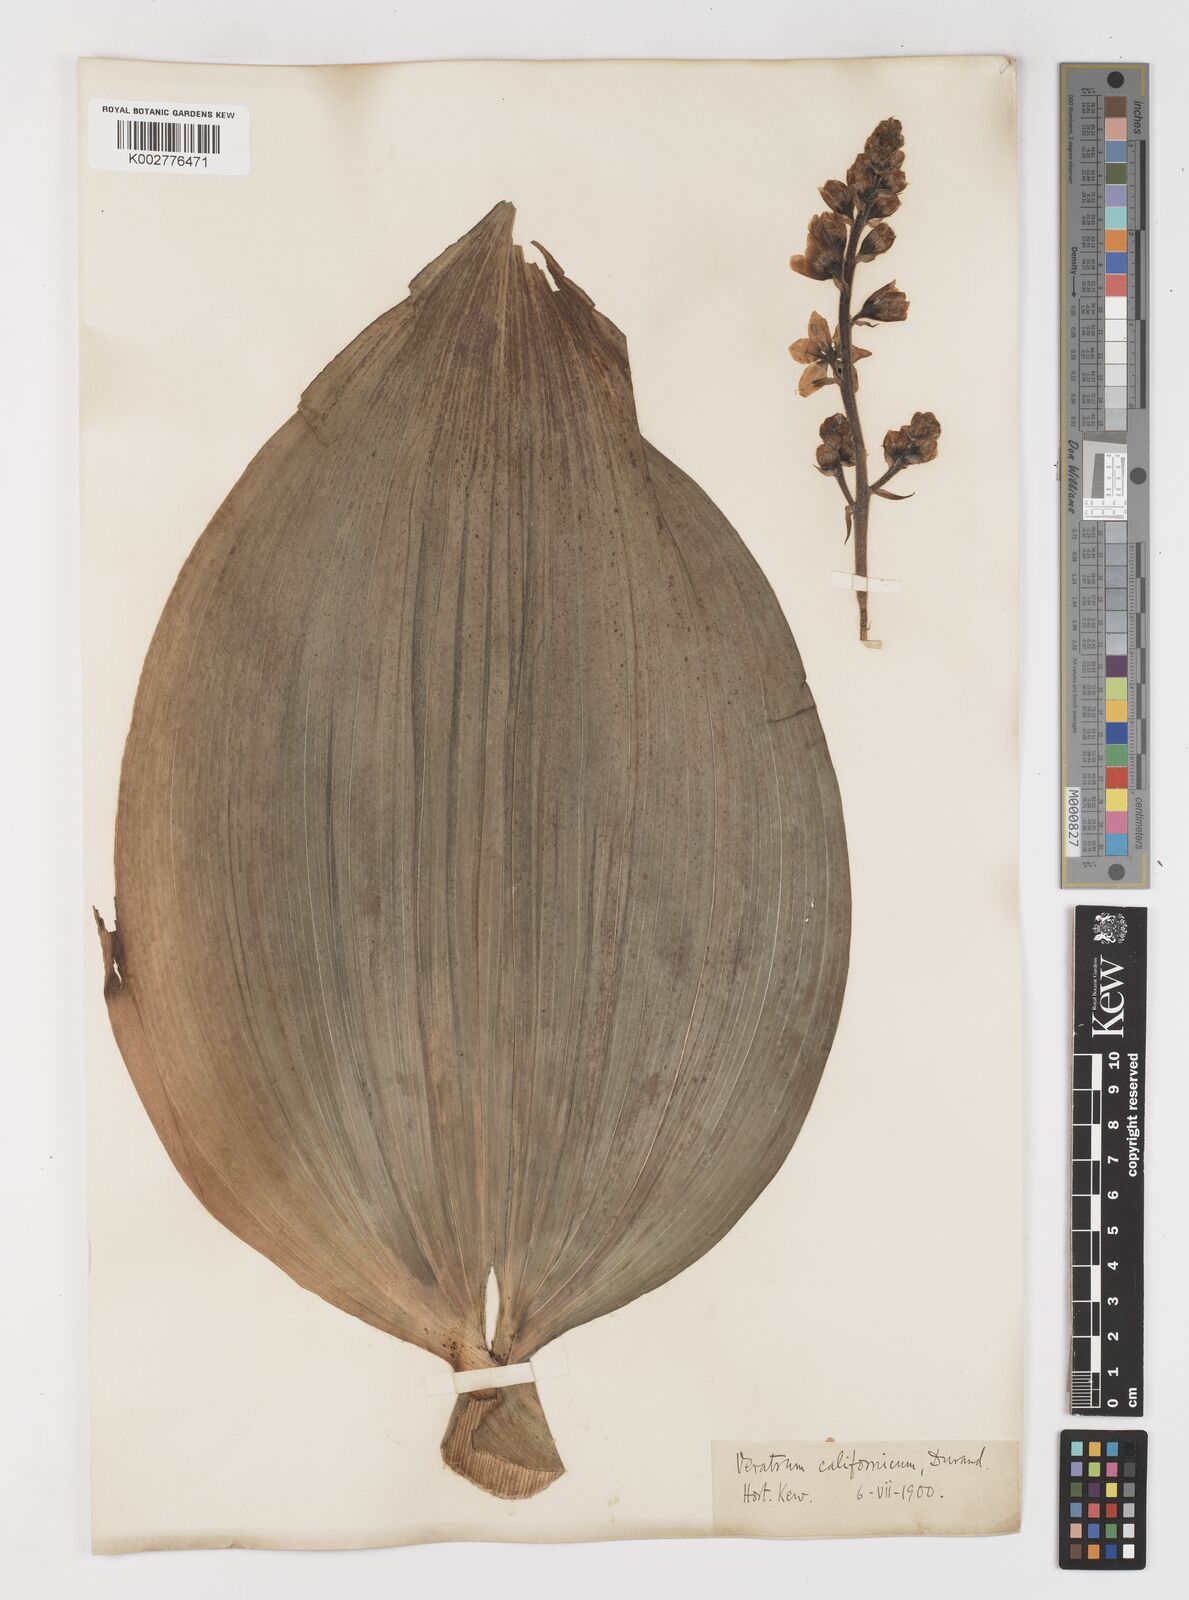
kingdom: Plantae
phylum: Tracheophyta
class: Liliopsida
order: Liliales
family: Melanthiaceae
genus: Veratrum
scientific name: Veratrum californicum
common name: California veratrum
